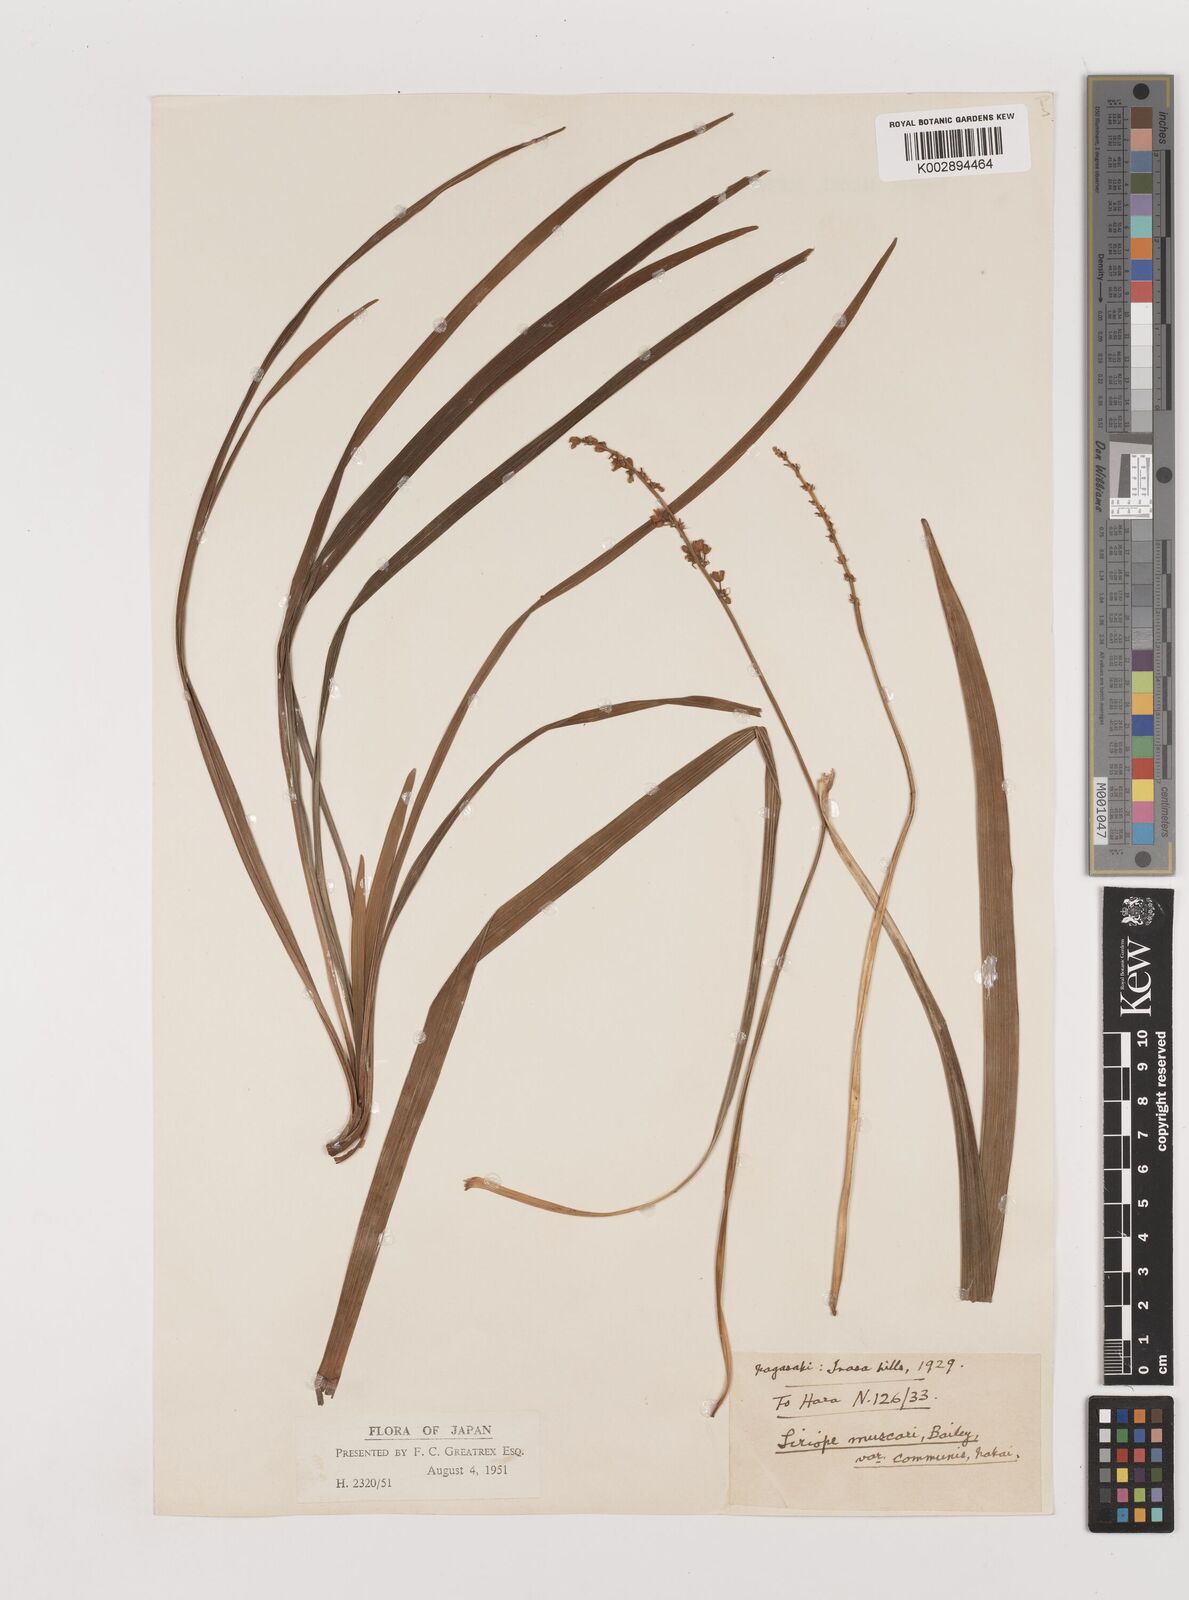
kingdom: Plantae
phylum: Tracheophyta
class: Liliopsida
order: Asparagales
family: Asparagaceae
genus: Liriope
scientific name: Liriope muscari
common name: Big blue lilyturf
